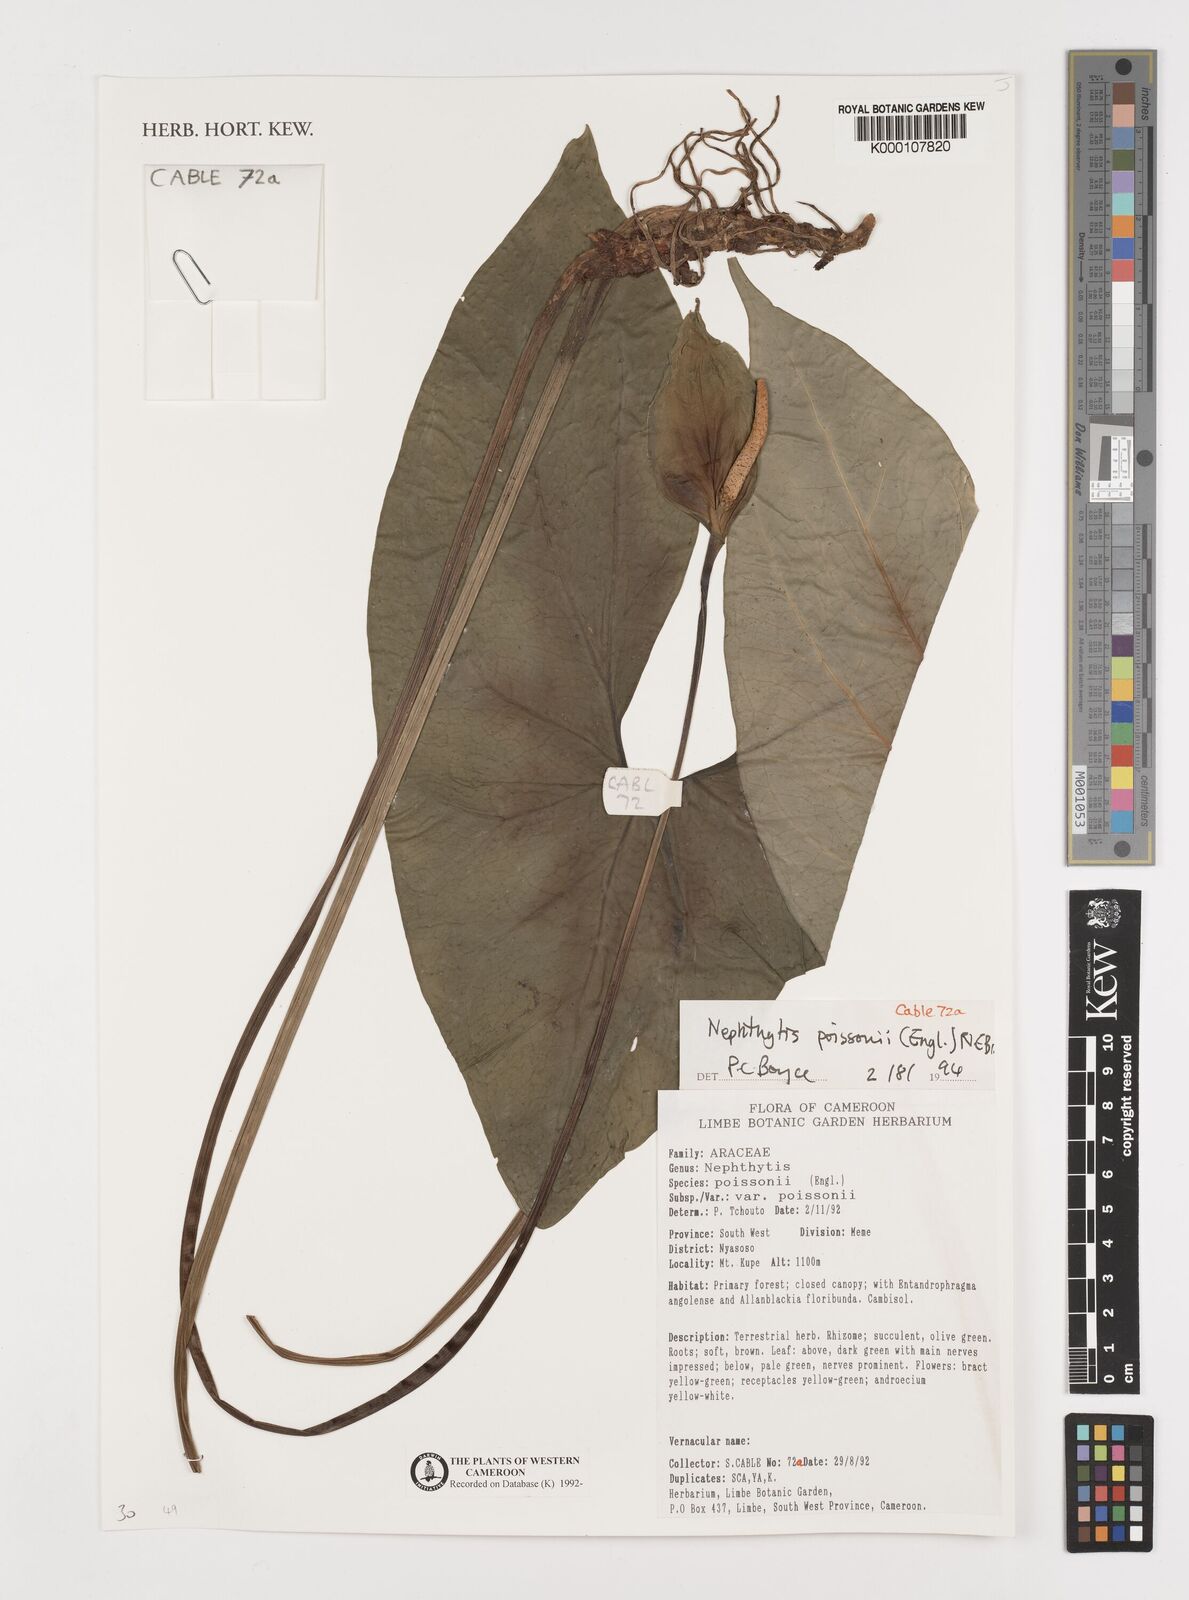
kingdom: Plantae
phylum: Tracheophyta
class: Liliopsida
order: Alismatales
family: Araceae
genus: Nephthytis
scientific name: Nephthytis poissonii
